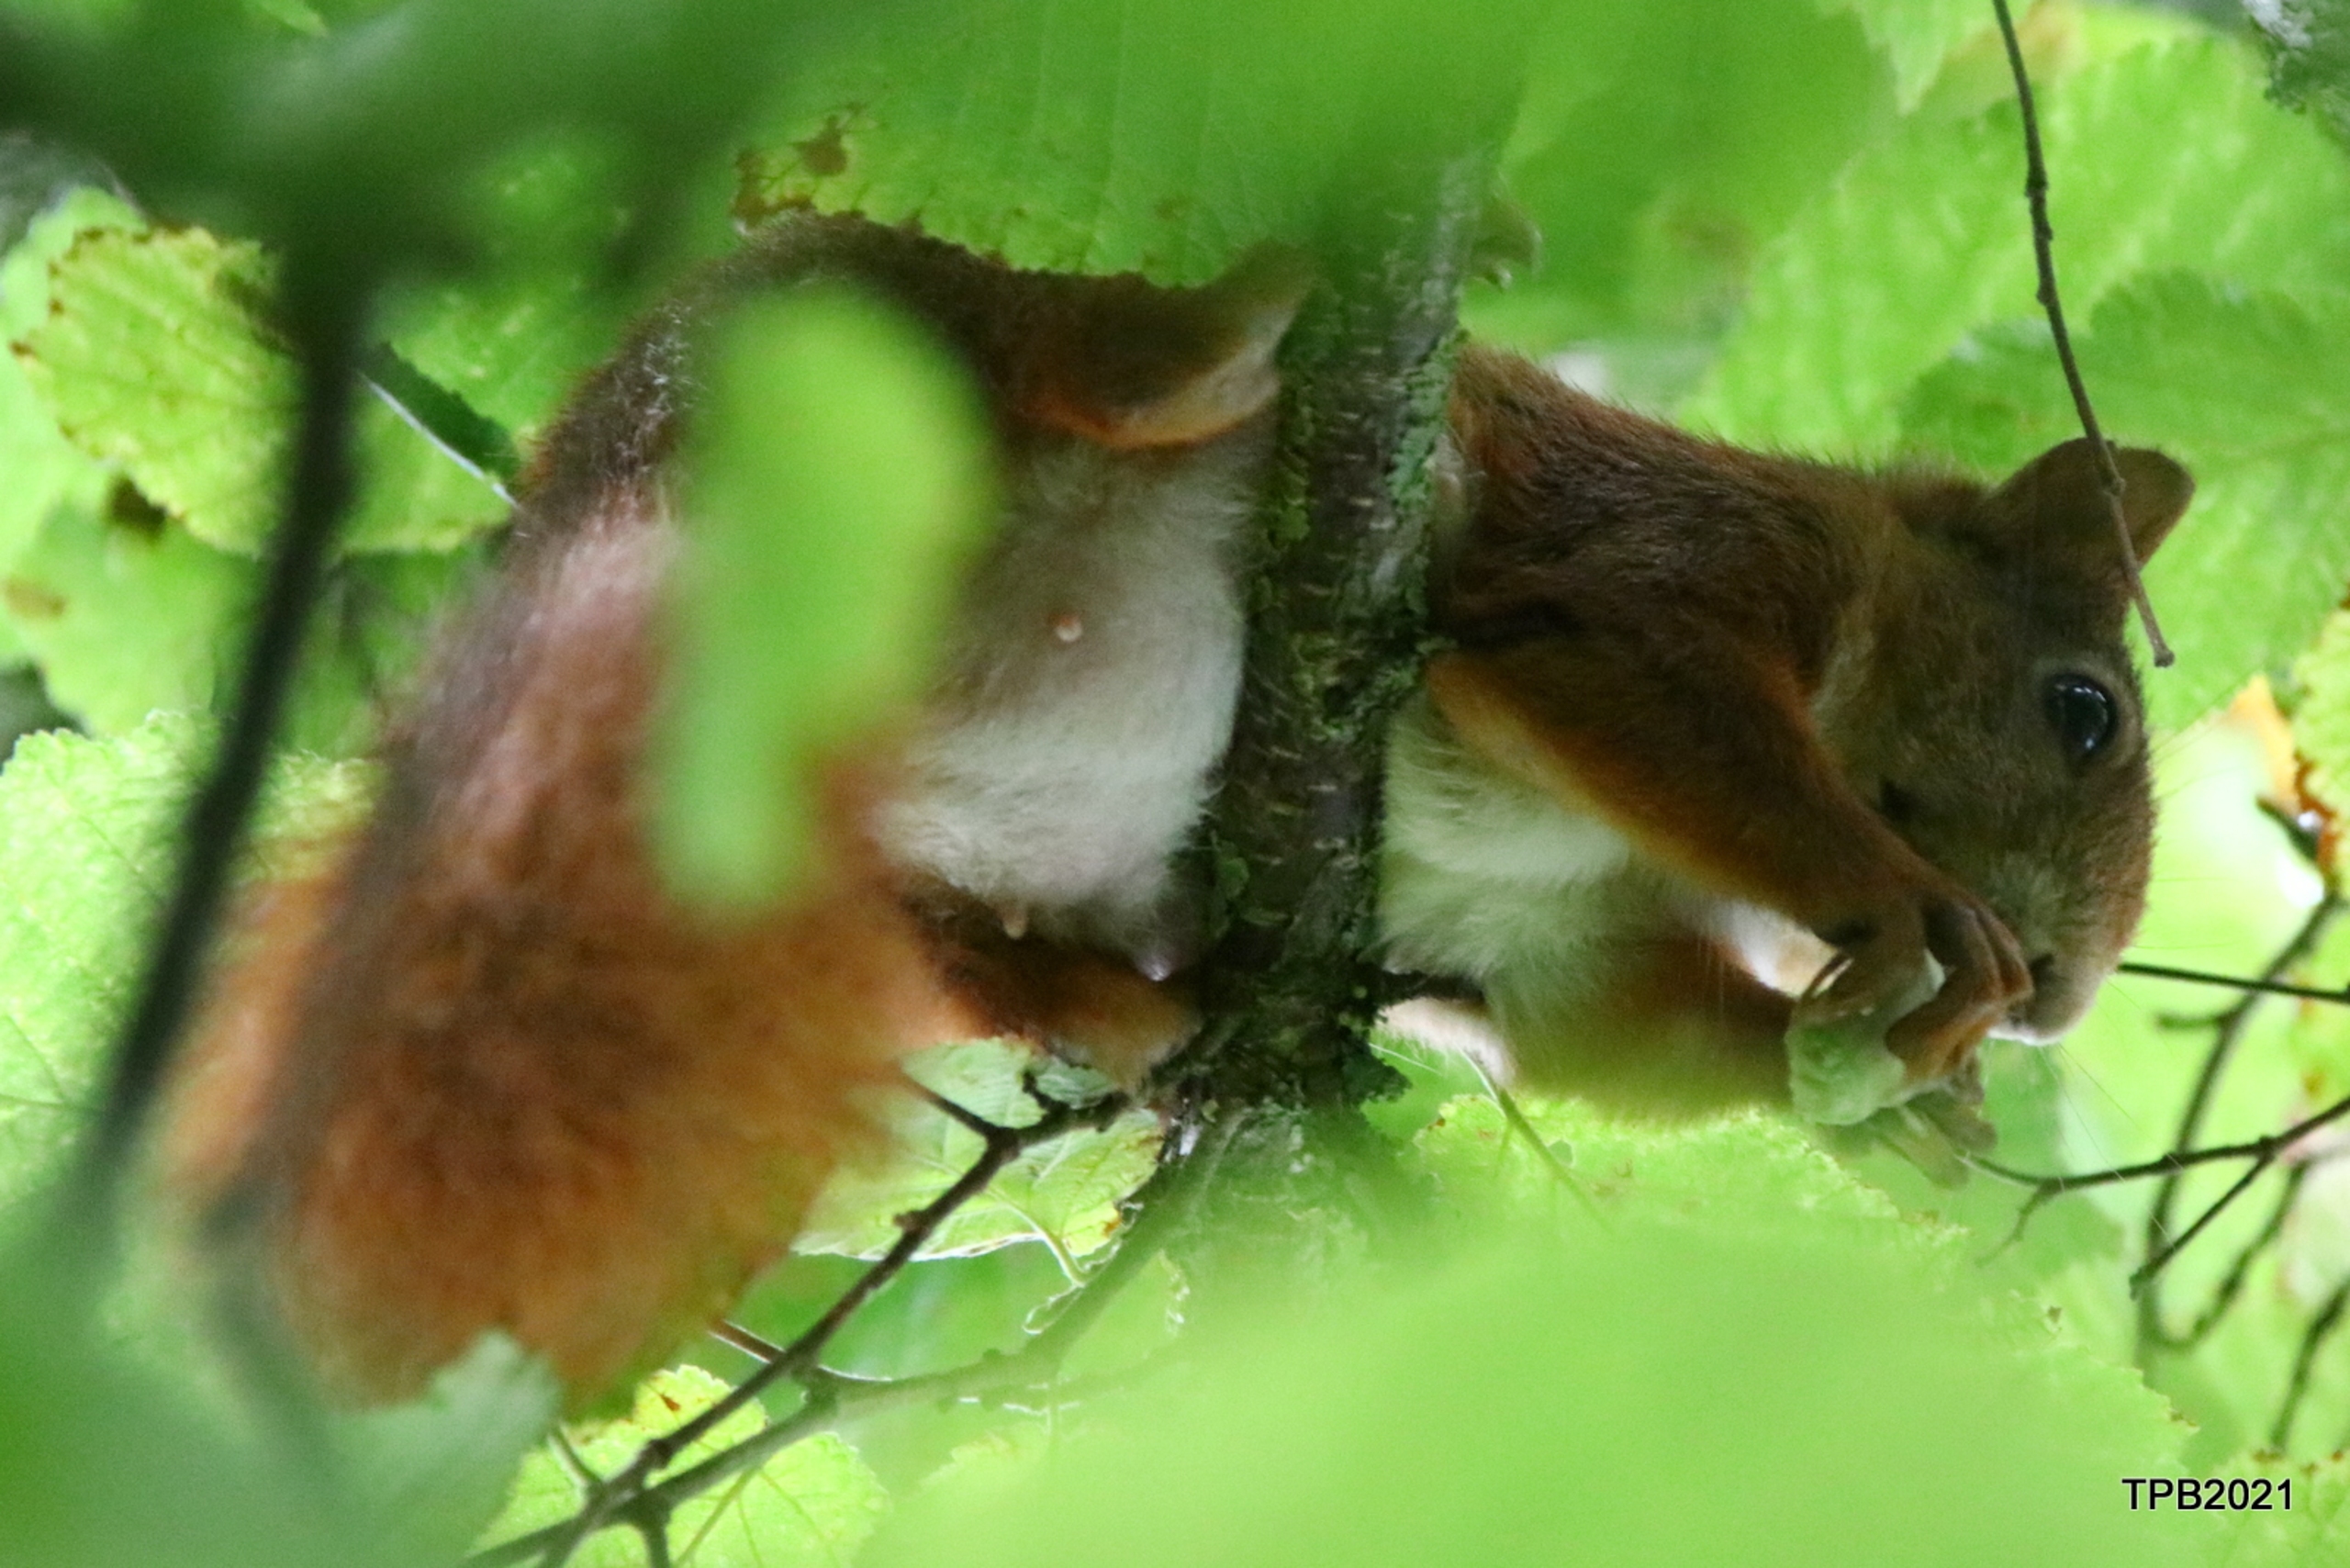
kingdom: Animalia
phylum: Chordata
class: Mammalia
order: Rodentia
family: Sciuridae
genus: Sciurus
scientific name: Sciurus vulgaris
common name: Egern
